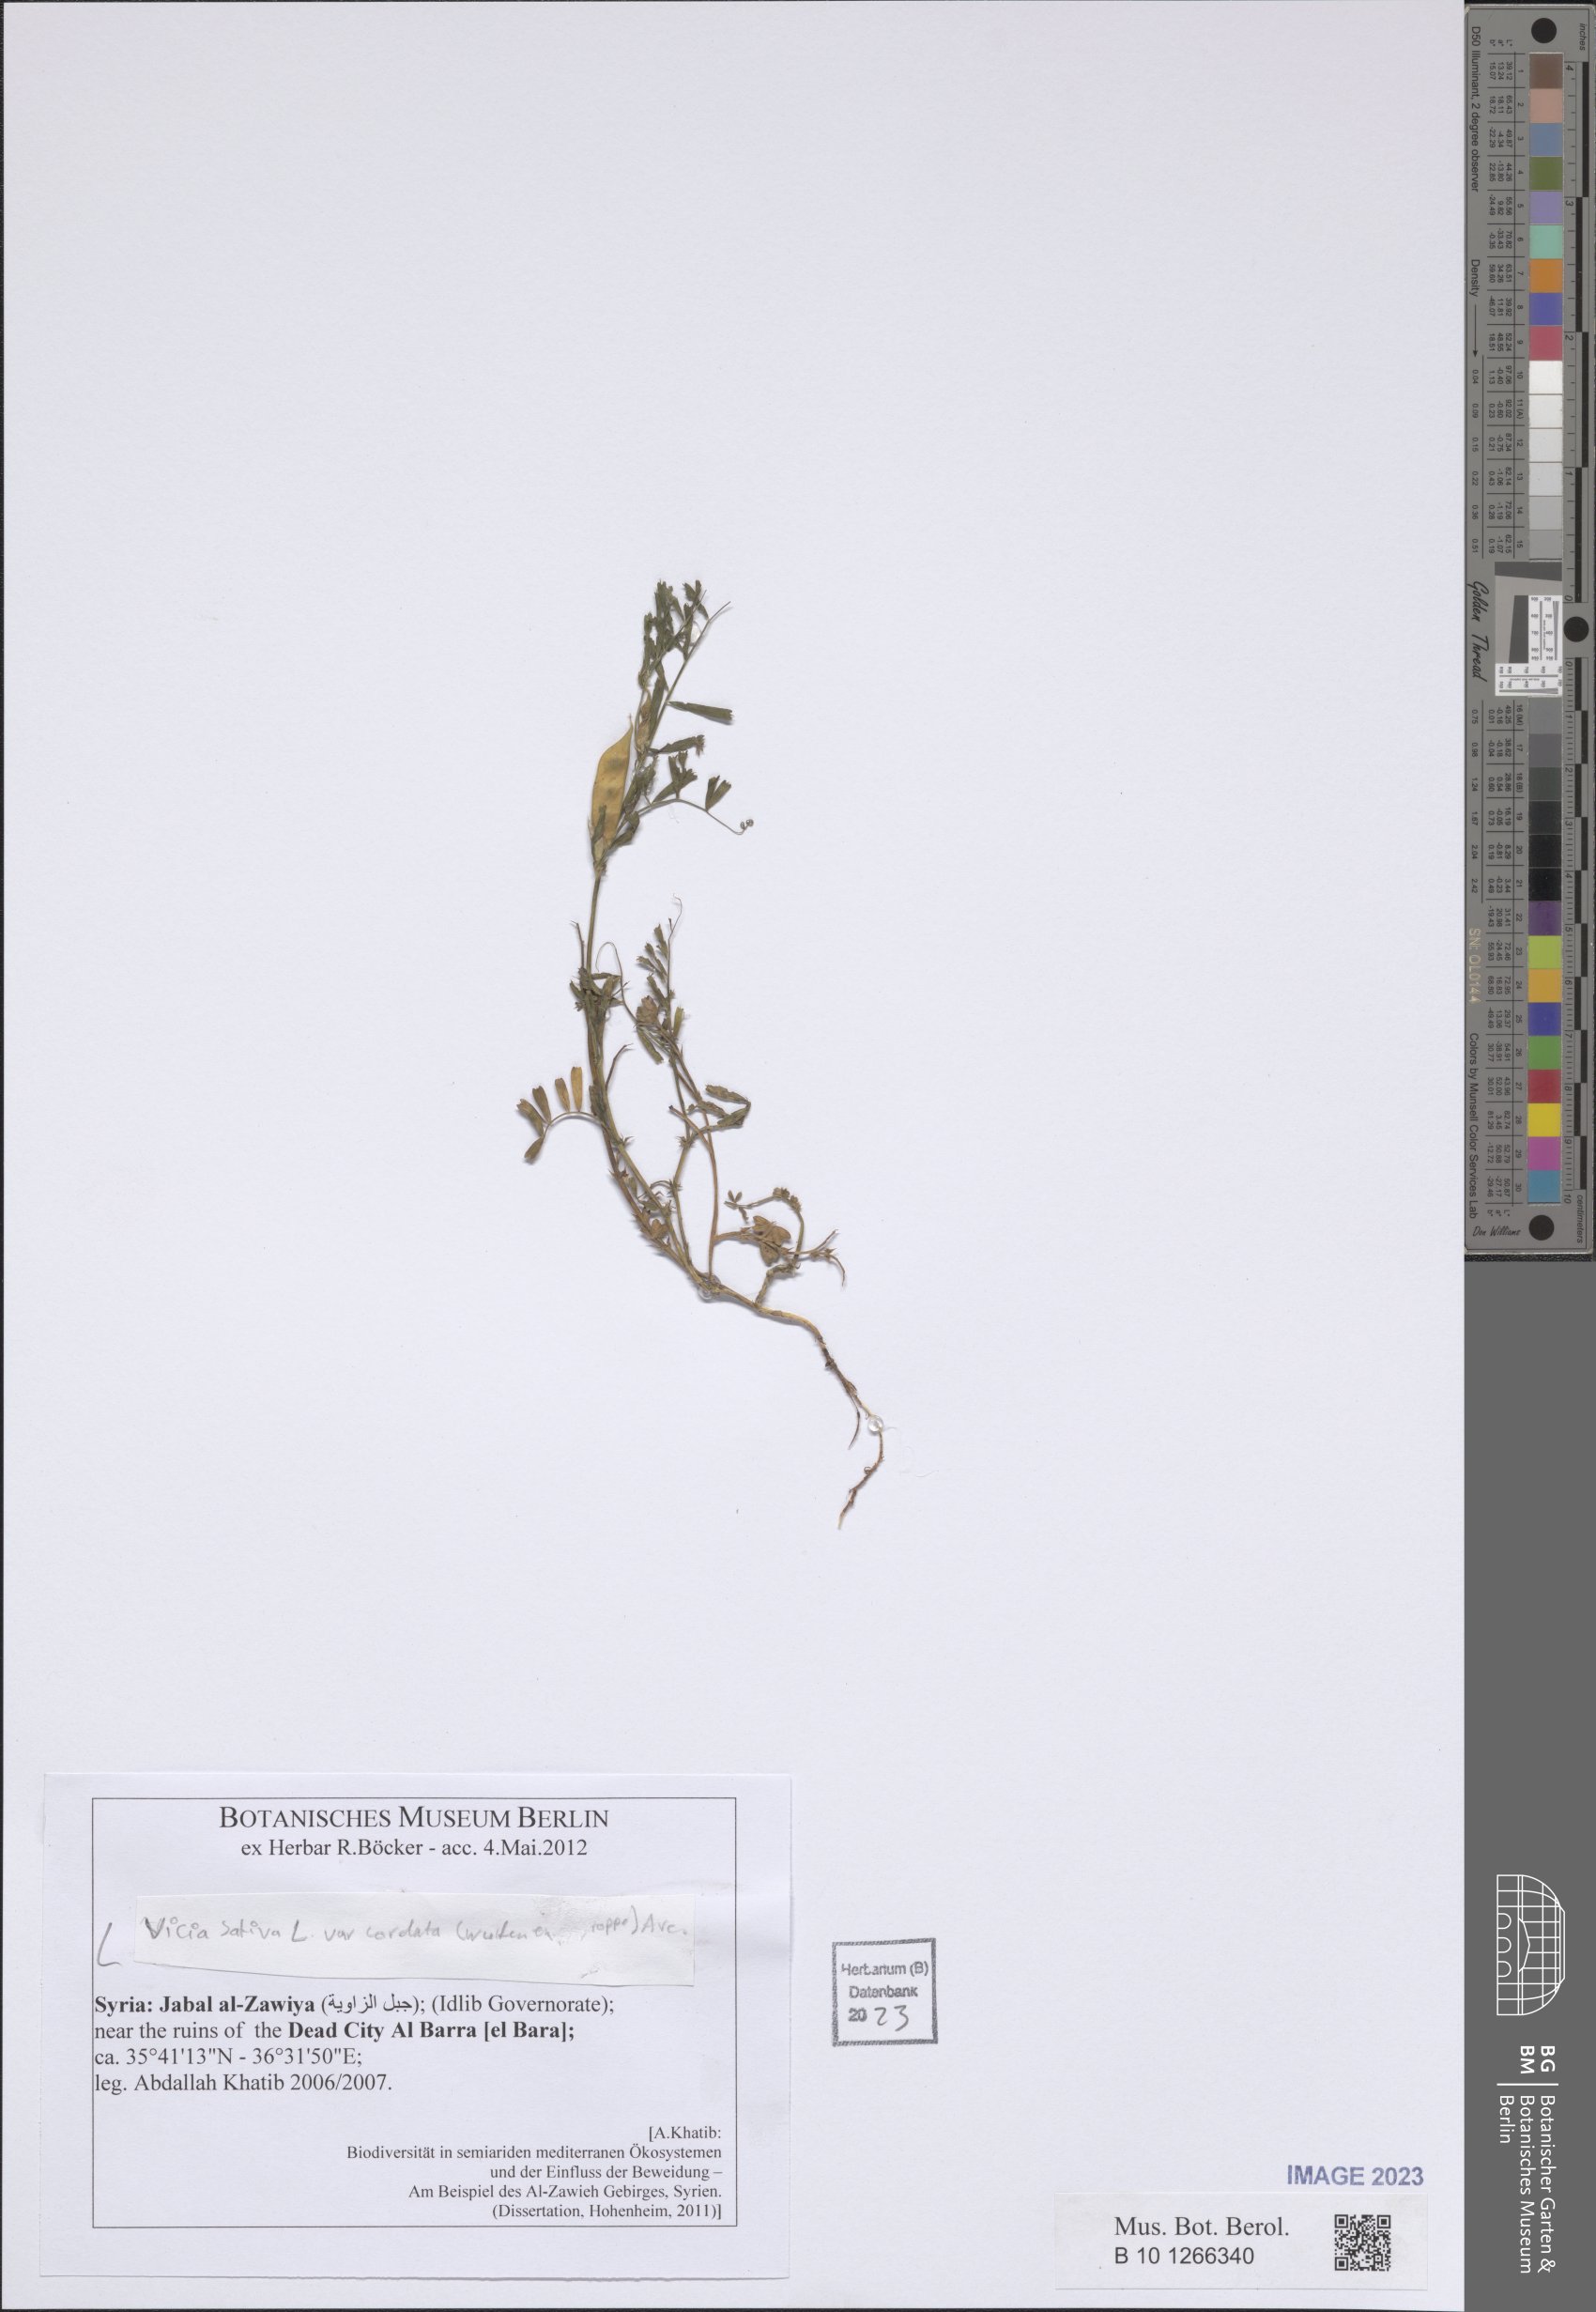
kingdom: Plantae
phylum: Tracheophyta
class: Magnoliopsida
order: Fabales
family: Fabaceae
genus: Vicia
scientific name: Vicia sativa
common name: Garden vetch
